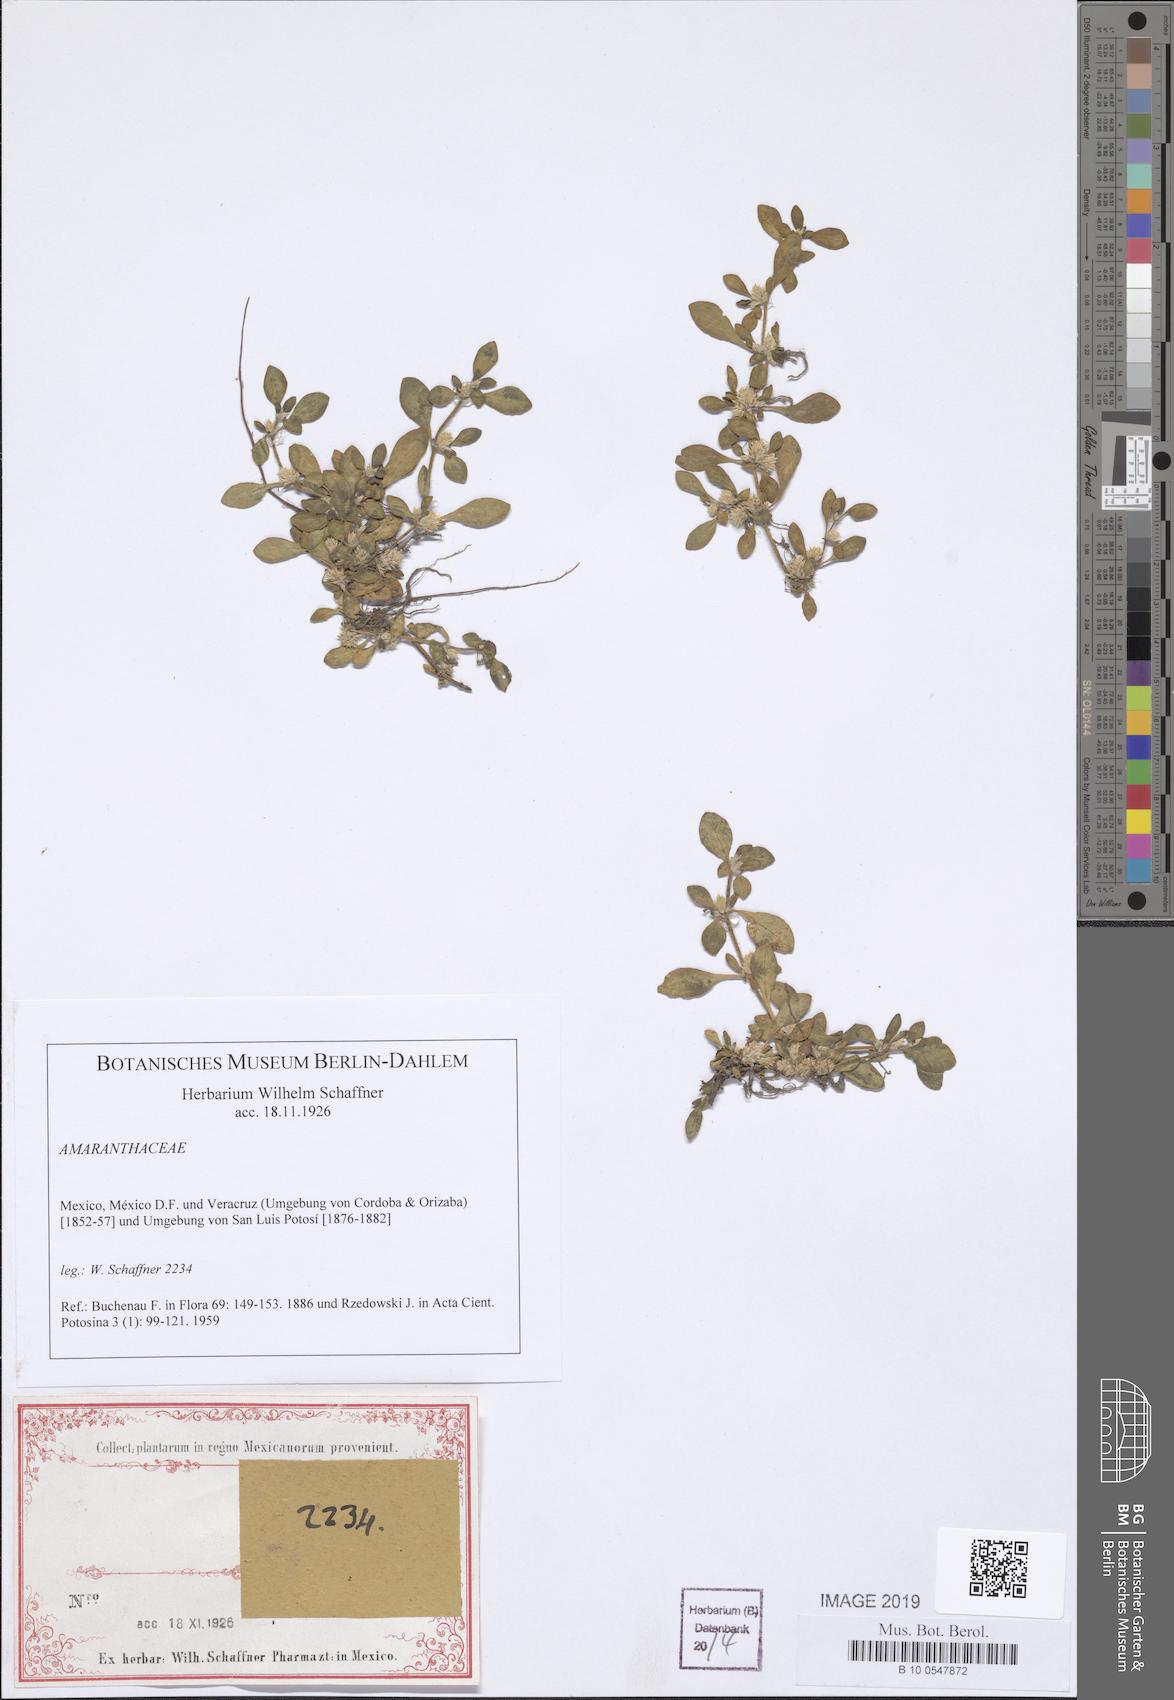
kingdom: Plantae
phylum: Tracheophyta
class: Magnoliopsida
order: Caryophyllales
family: Amaranthaceae
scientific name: Amaranthaceae
